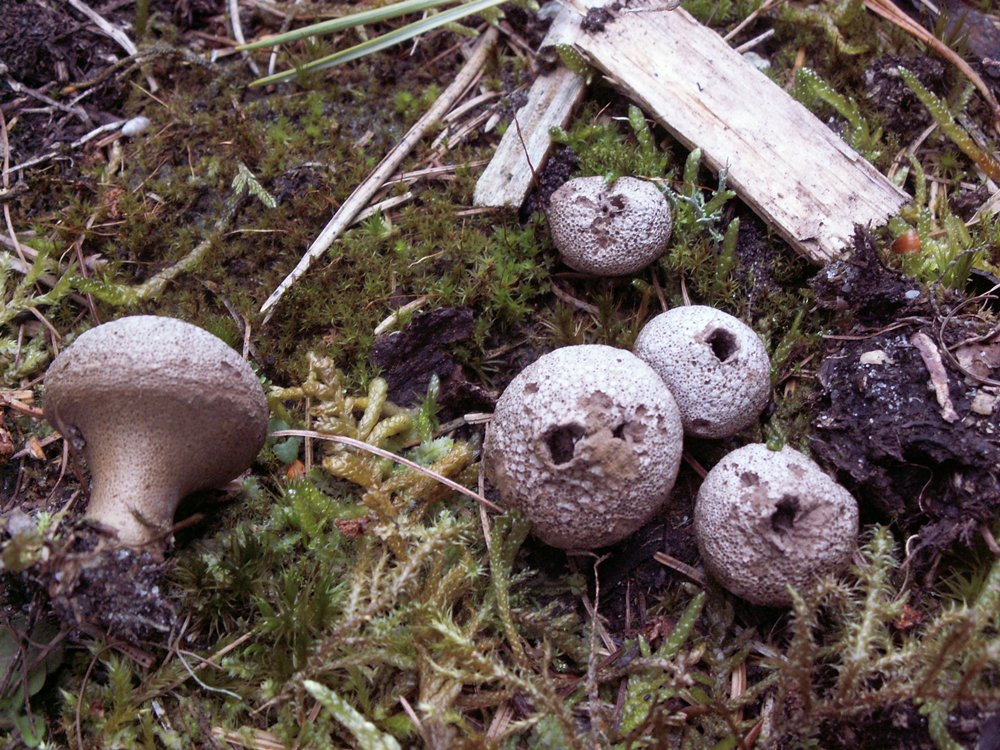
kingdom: Fungi
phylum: Basidiomycota
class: Agaricomycetes
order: Agaricales
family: Lycoperdaceae
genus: Lycoperdon
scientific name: Lycoperdon nigrescens
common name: sortagtig støvbold
